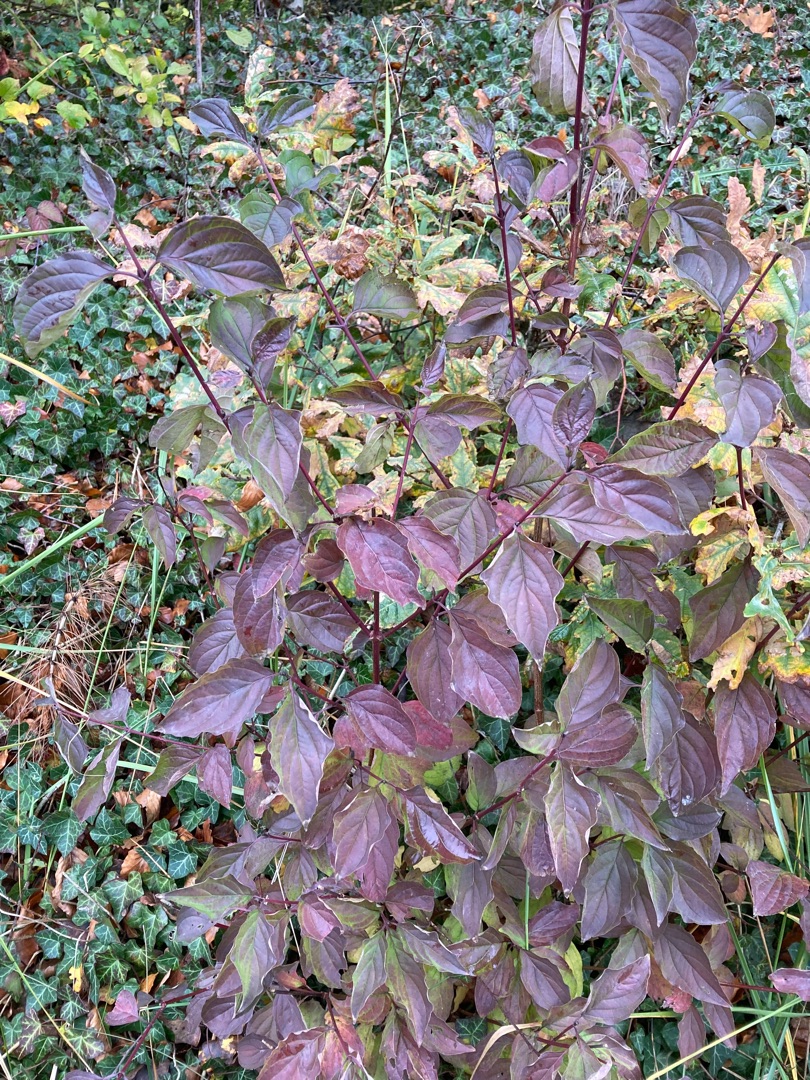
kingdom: Plantae
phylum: Tracheophyta
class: Magnoliopsida
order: Cornales
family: Cornaceae
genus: Cornus
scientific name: Cornus sanguinea
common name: Rød kornel
